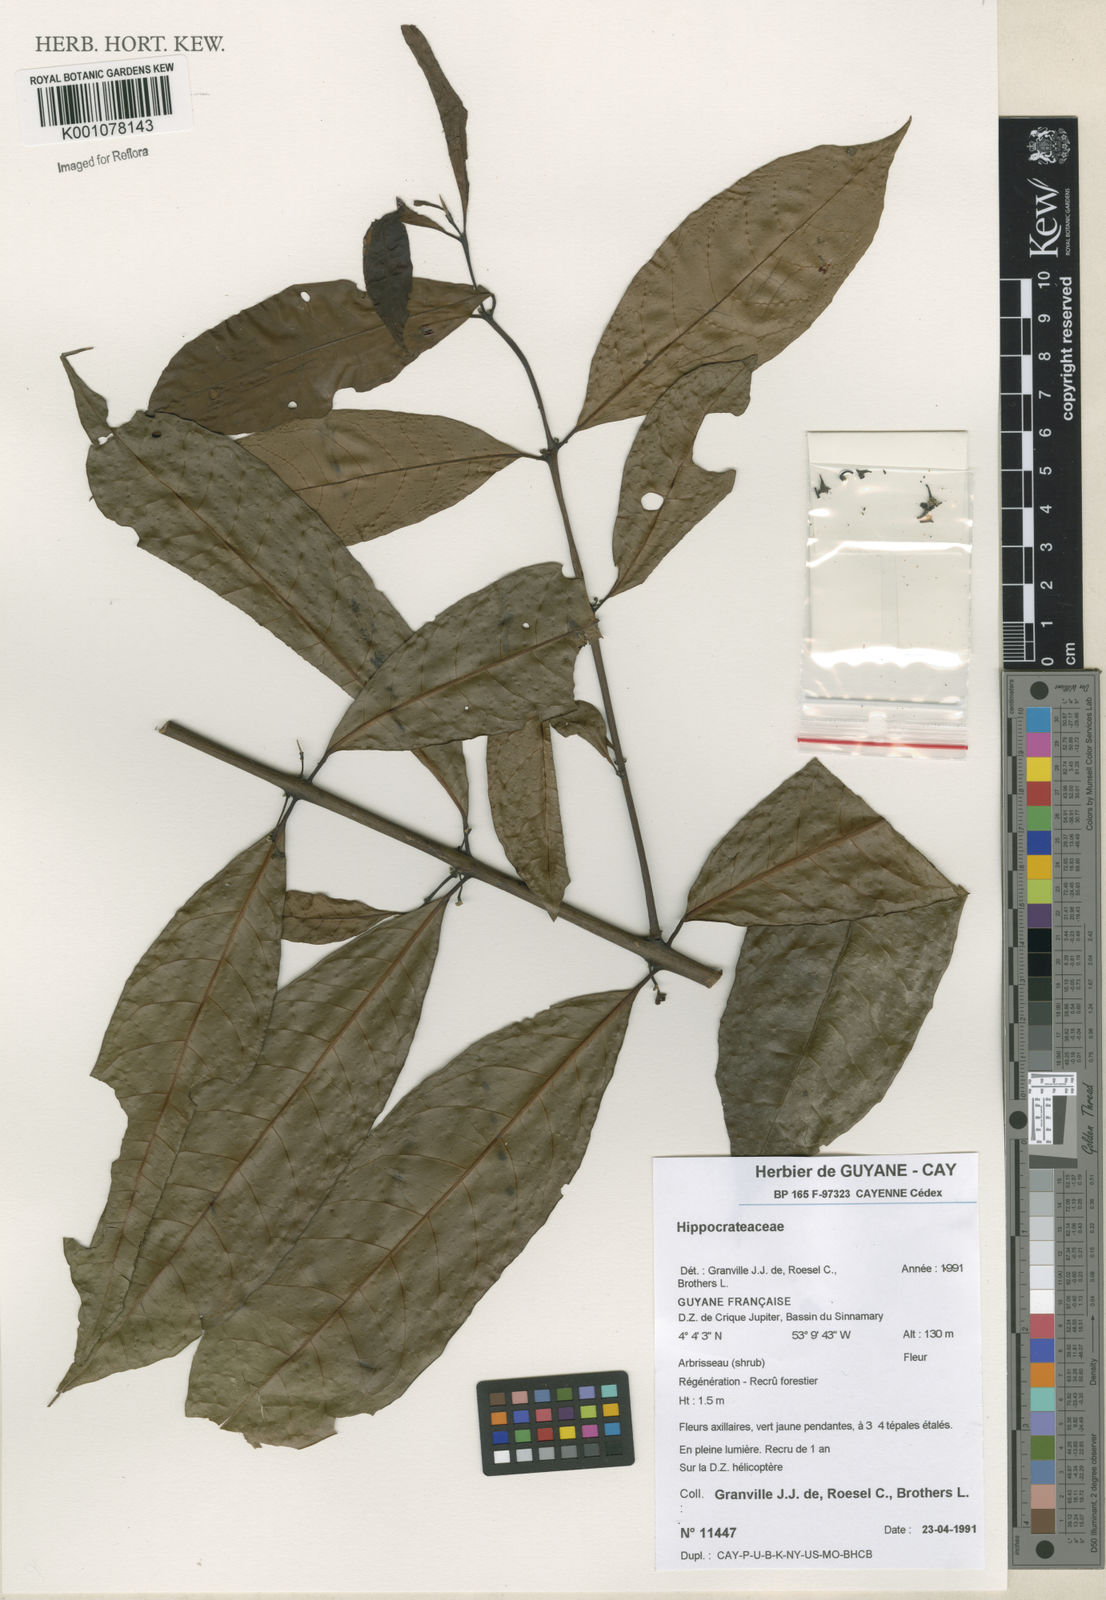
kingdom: Plantae
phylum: Tracheophyta
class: Magnoliopsida
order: Laurales
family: Siparunaceae
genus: Siparuna
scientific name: Siparuna
